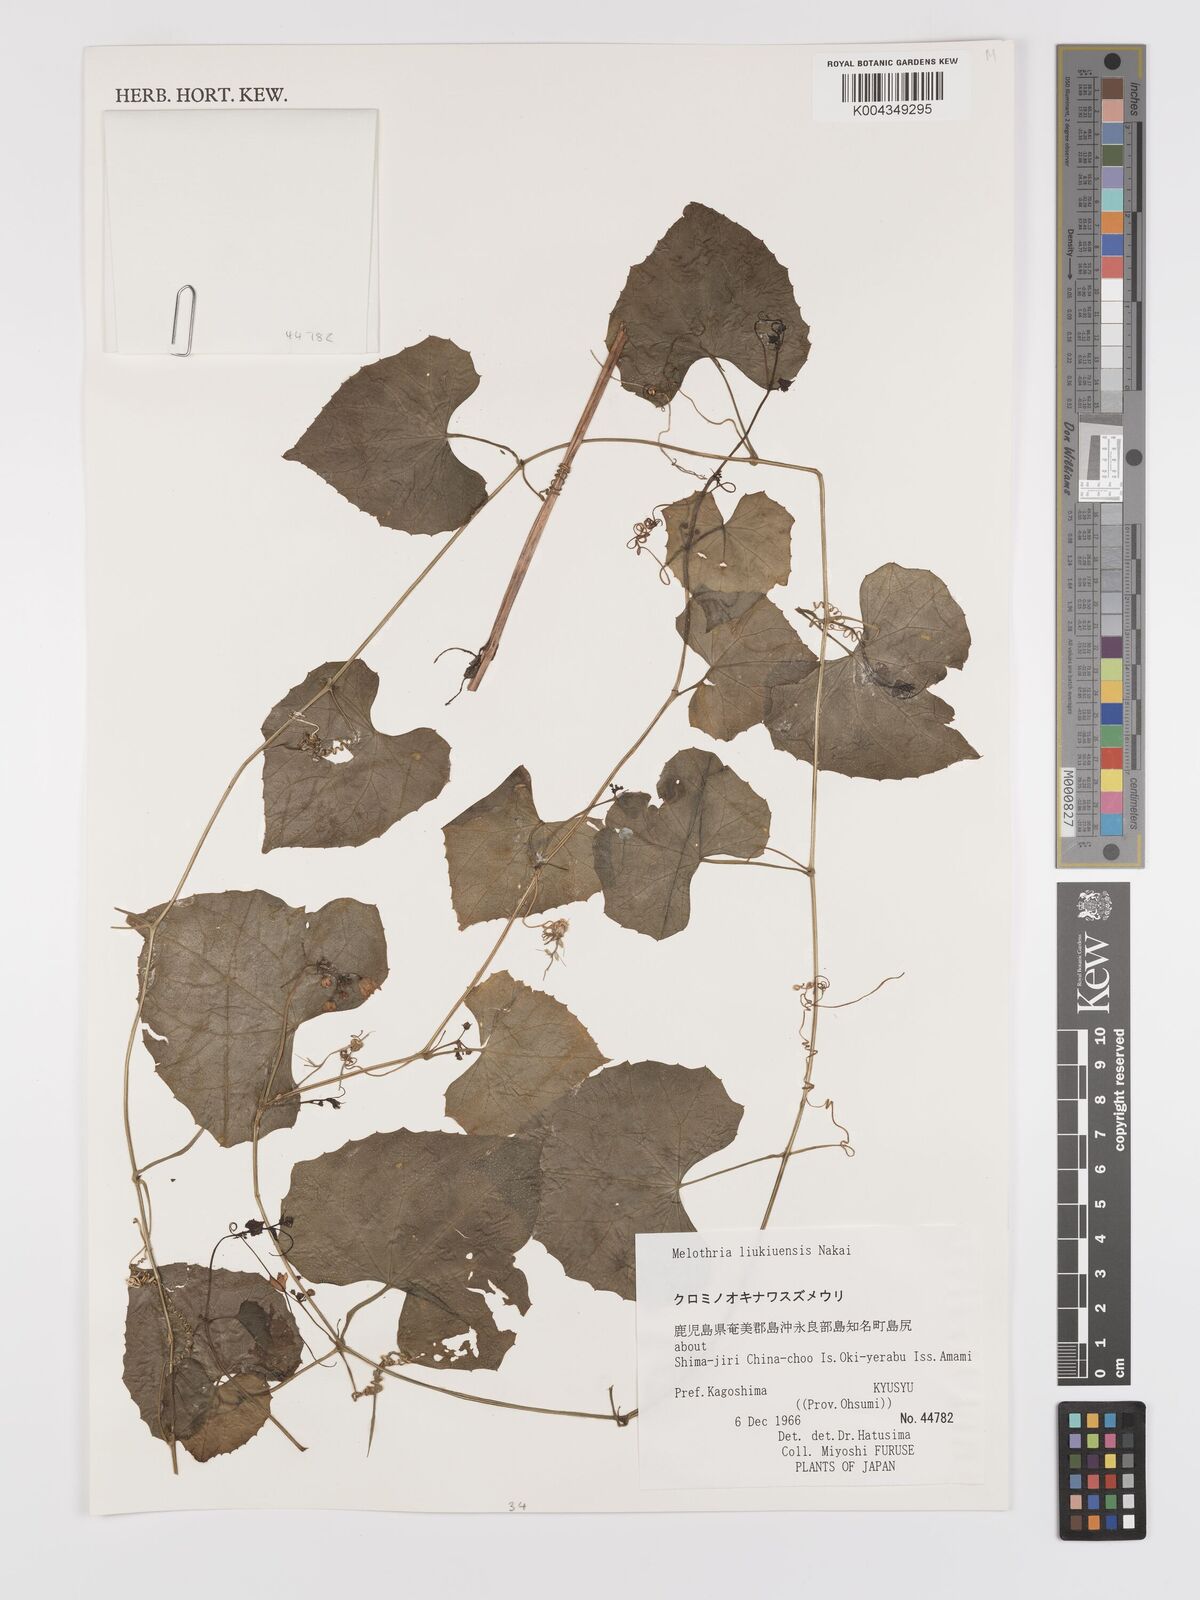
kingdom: Plantae
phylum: Tracheophyta
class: Magnoliopsida
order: Cucurbitales
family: Cucurbitaceae
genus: Zehneria
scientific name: Zehneria mucronata
